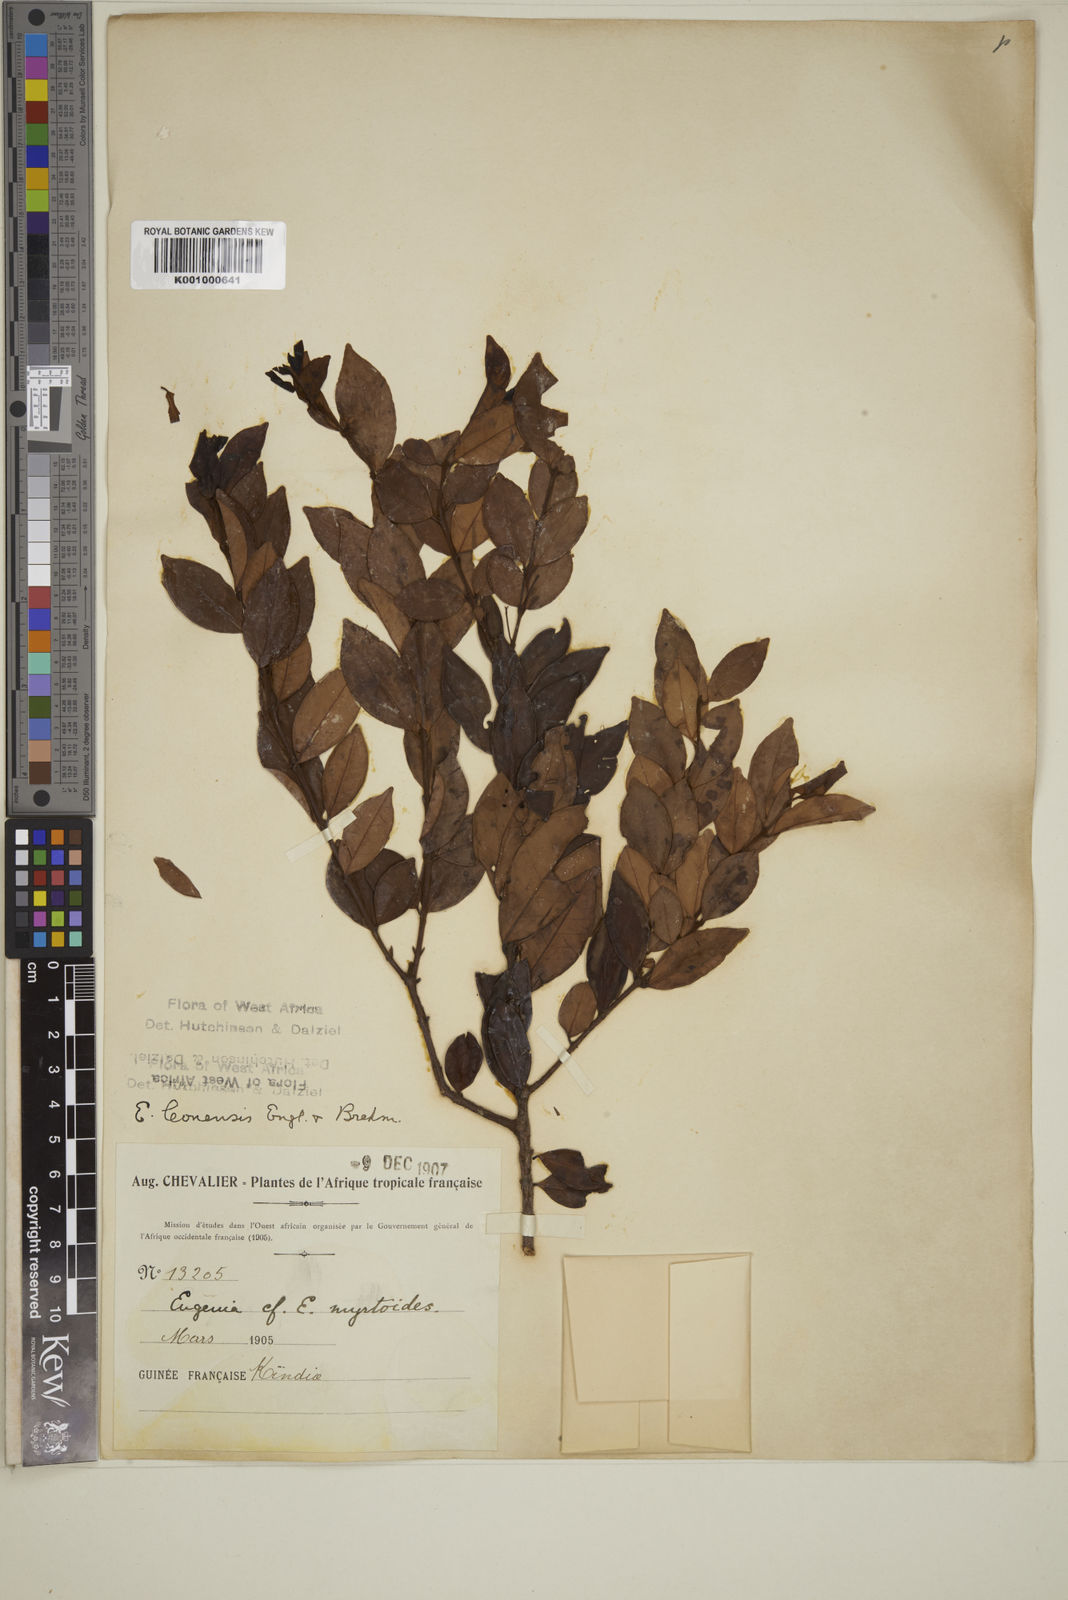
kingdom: Plantae
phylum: Tracheophyta
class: Magnoliopsida
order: Myrtales
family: Myrtaceae
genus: Eugenia
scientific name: Eugenia leonensis
